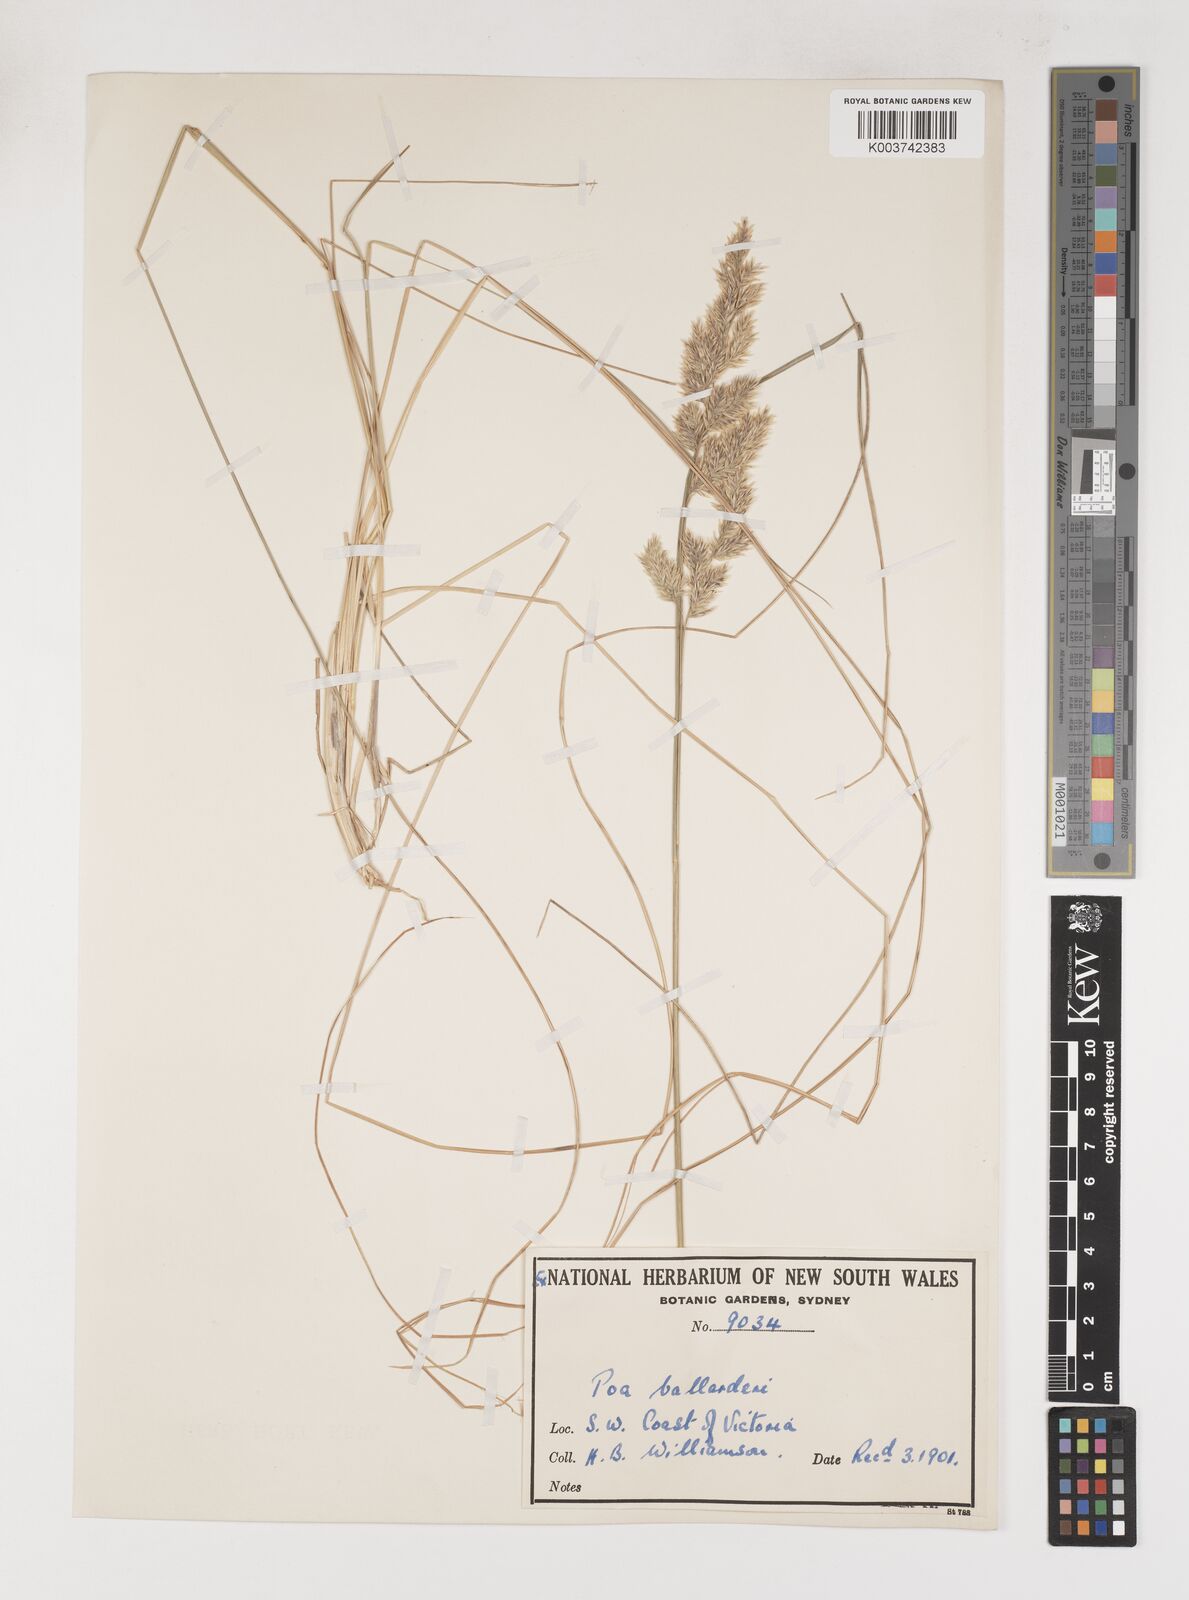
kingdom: Plantae
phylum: Tracheophyta
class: Liliopsida
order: Poales
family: Poaceae
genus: Poa
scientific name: Poa poiformis
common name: Tussock poa
